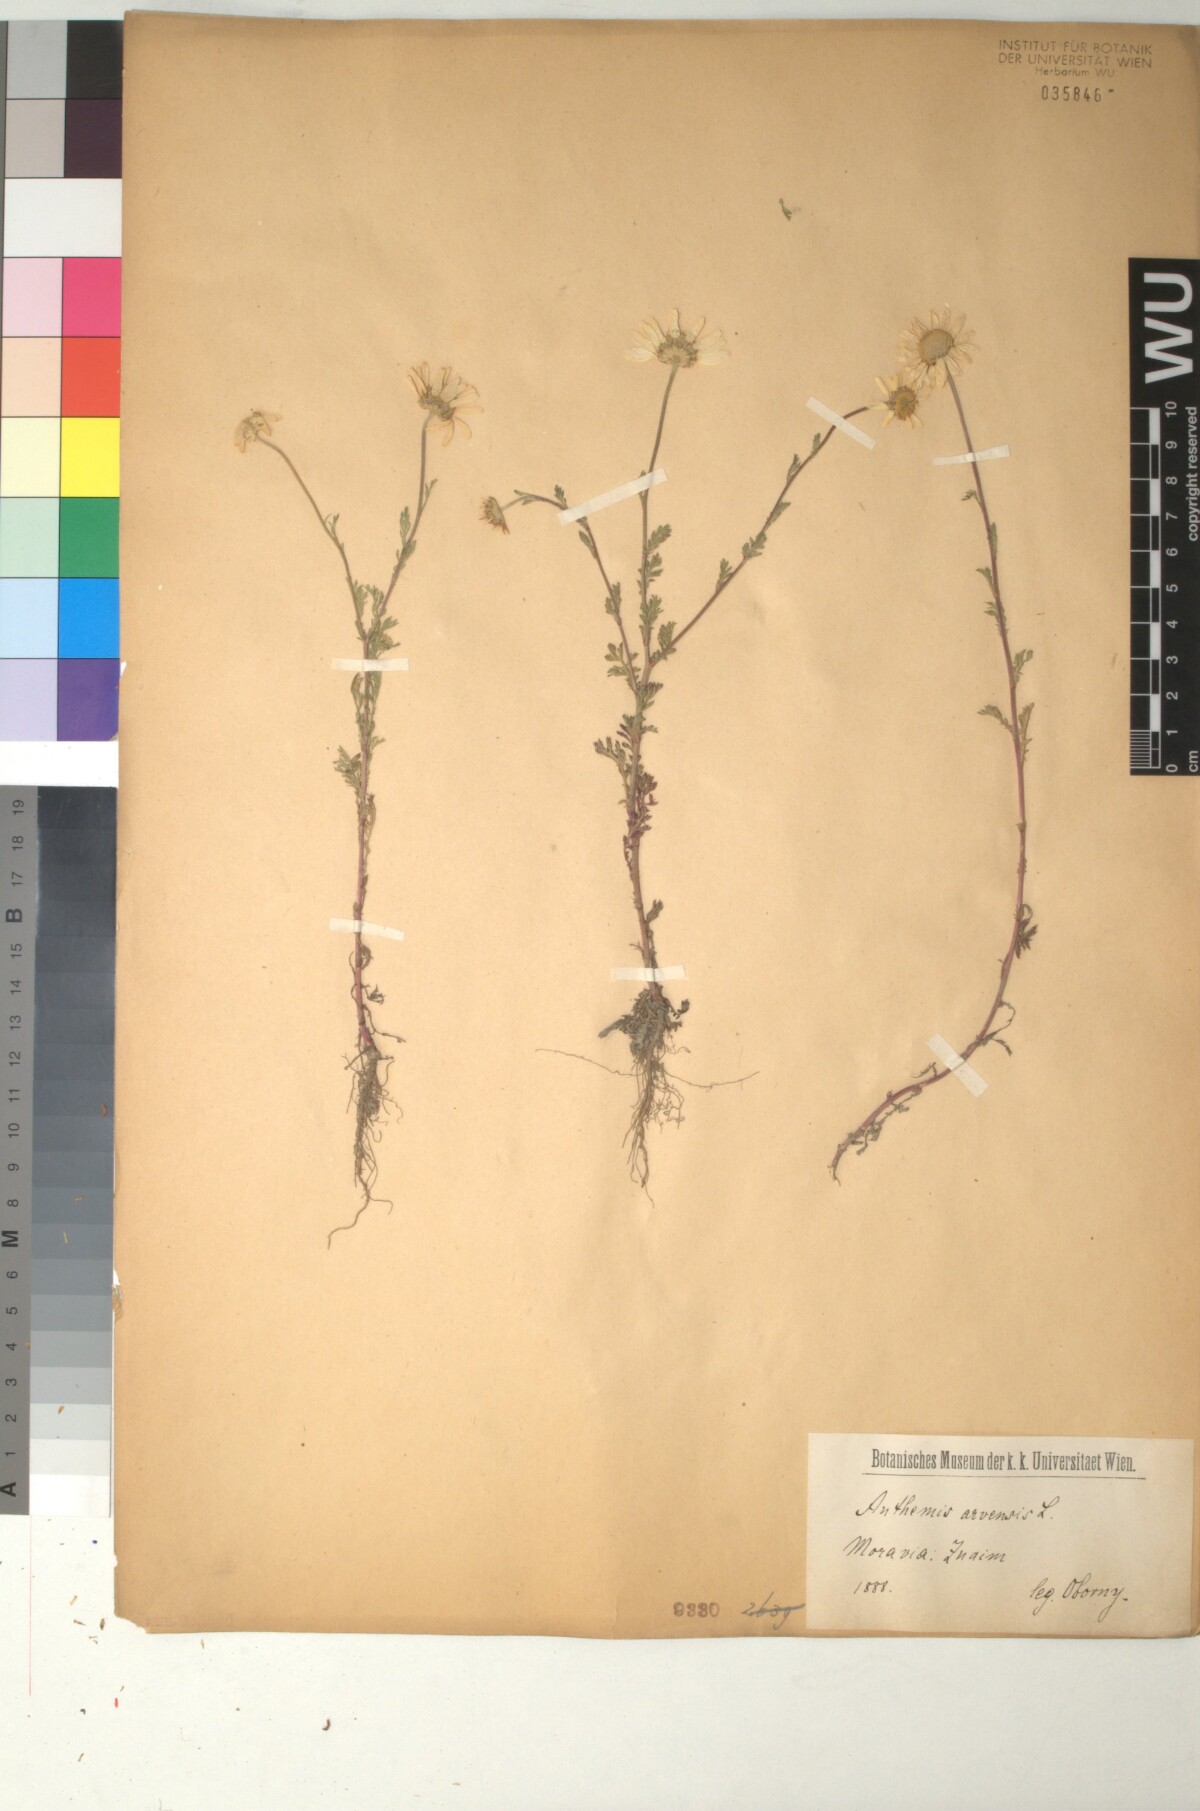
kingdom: Plantae
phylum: Tracheophyta
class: Magnoliopsida
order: Asterales
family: Asteraceae
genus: Anthemis
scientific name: Anthemis arvensis
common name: Corn chamomile
